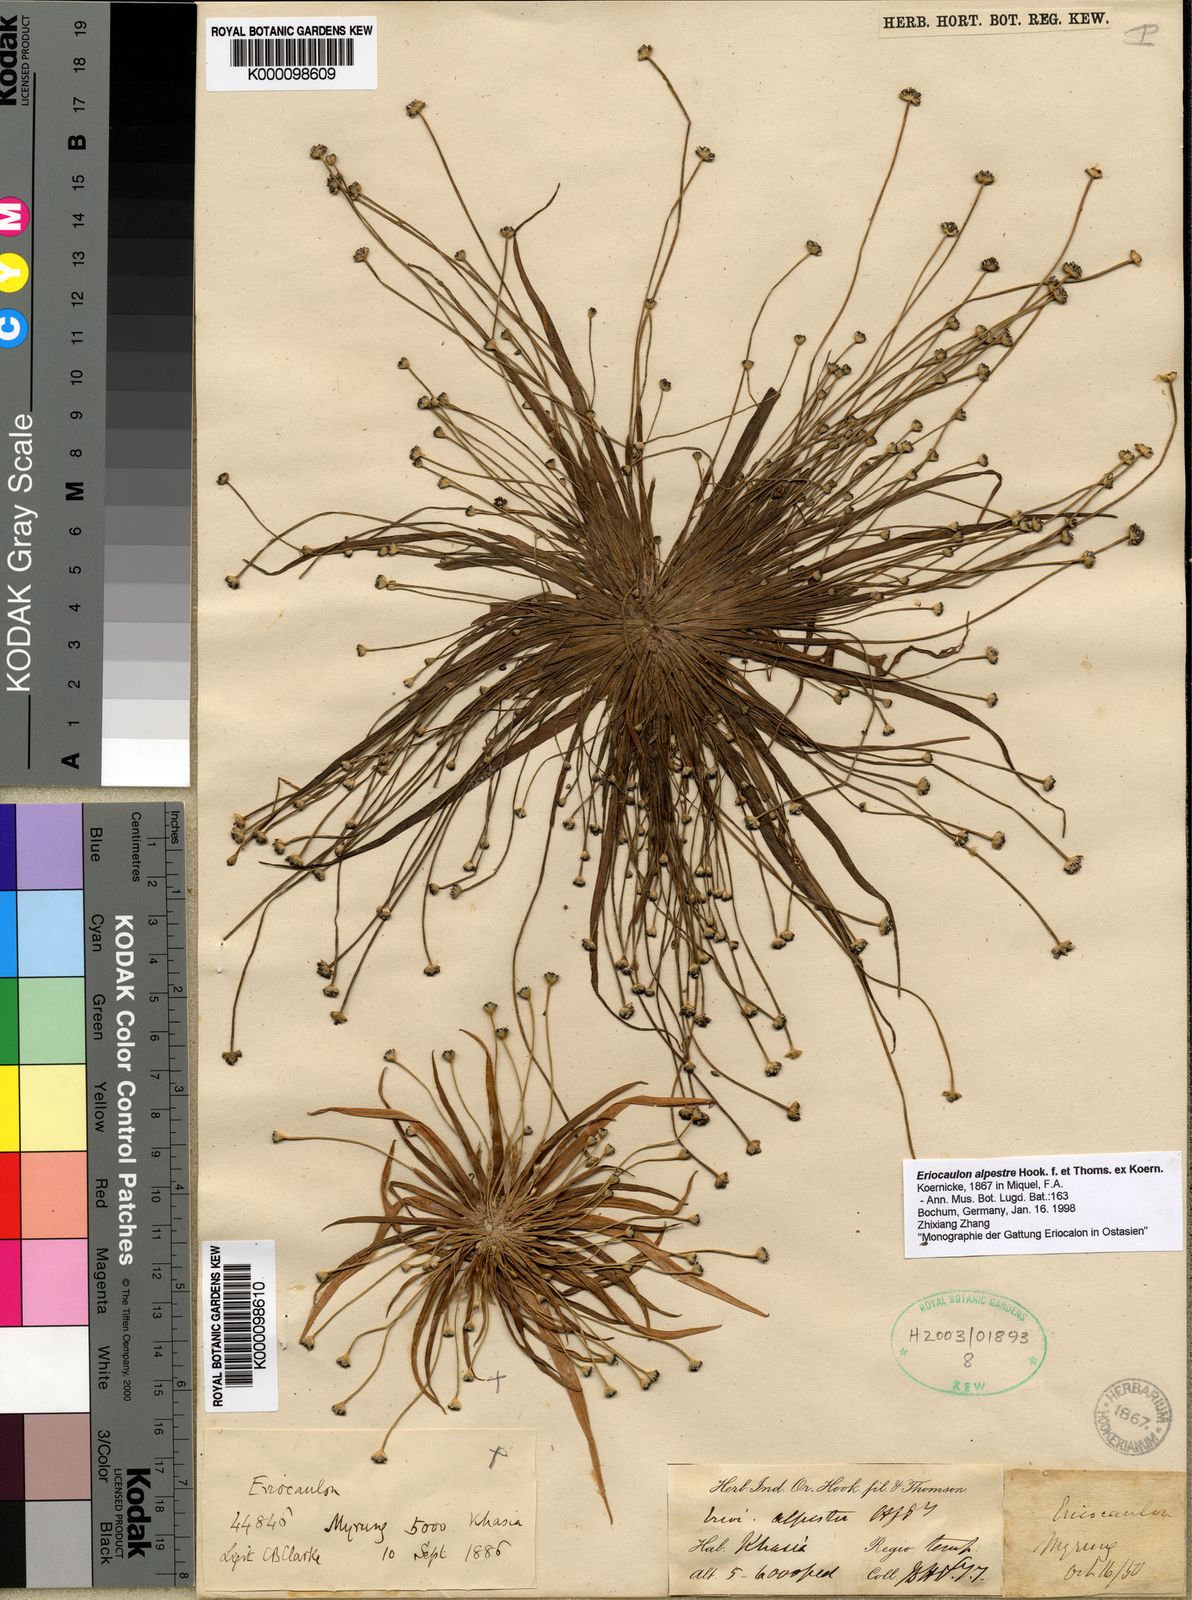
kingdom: Plantae
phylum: Tracheophyta
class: Liliopsida
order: Poales
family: Eriocaulaceae
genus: Eriocaulon
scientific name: Eriocaulon
